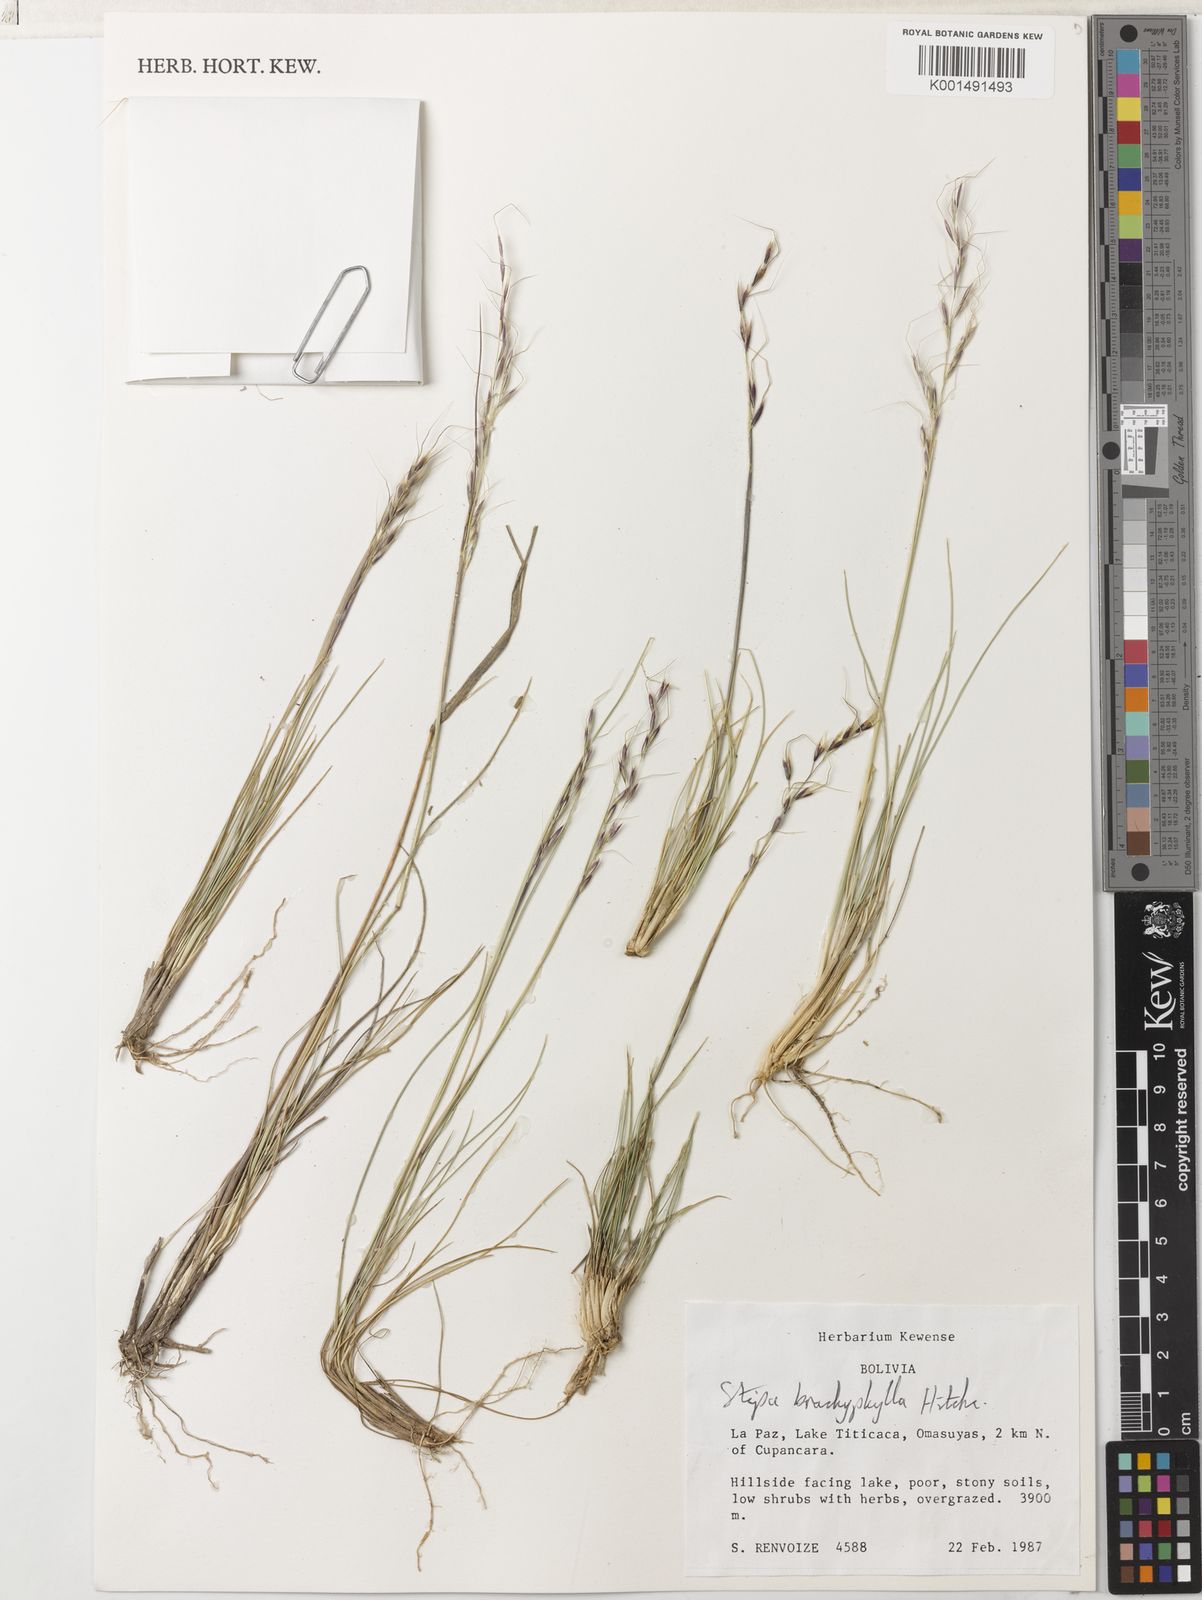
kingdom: Plantae
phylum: Tracheophyta
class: Liliopsida
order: Poales
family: Poaceae
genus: Nassella
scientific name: Nassella brachyphylla
